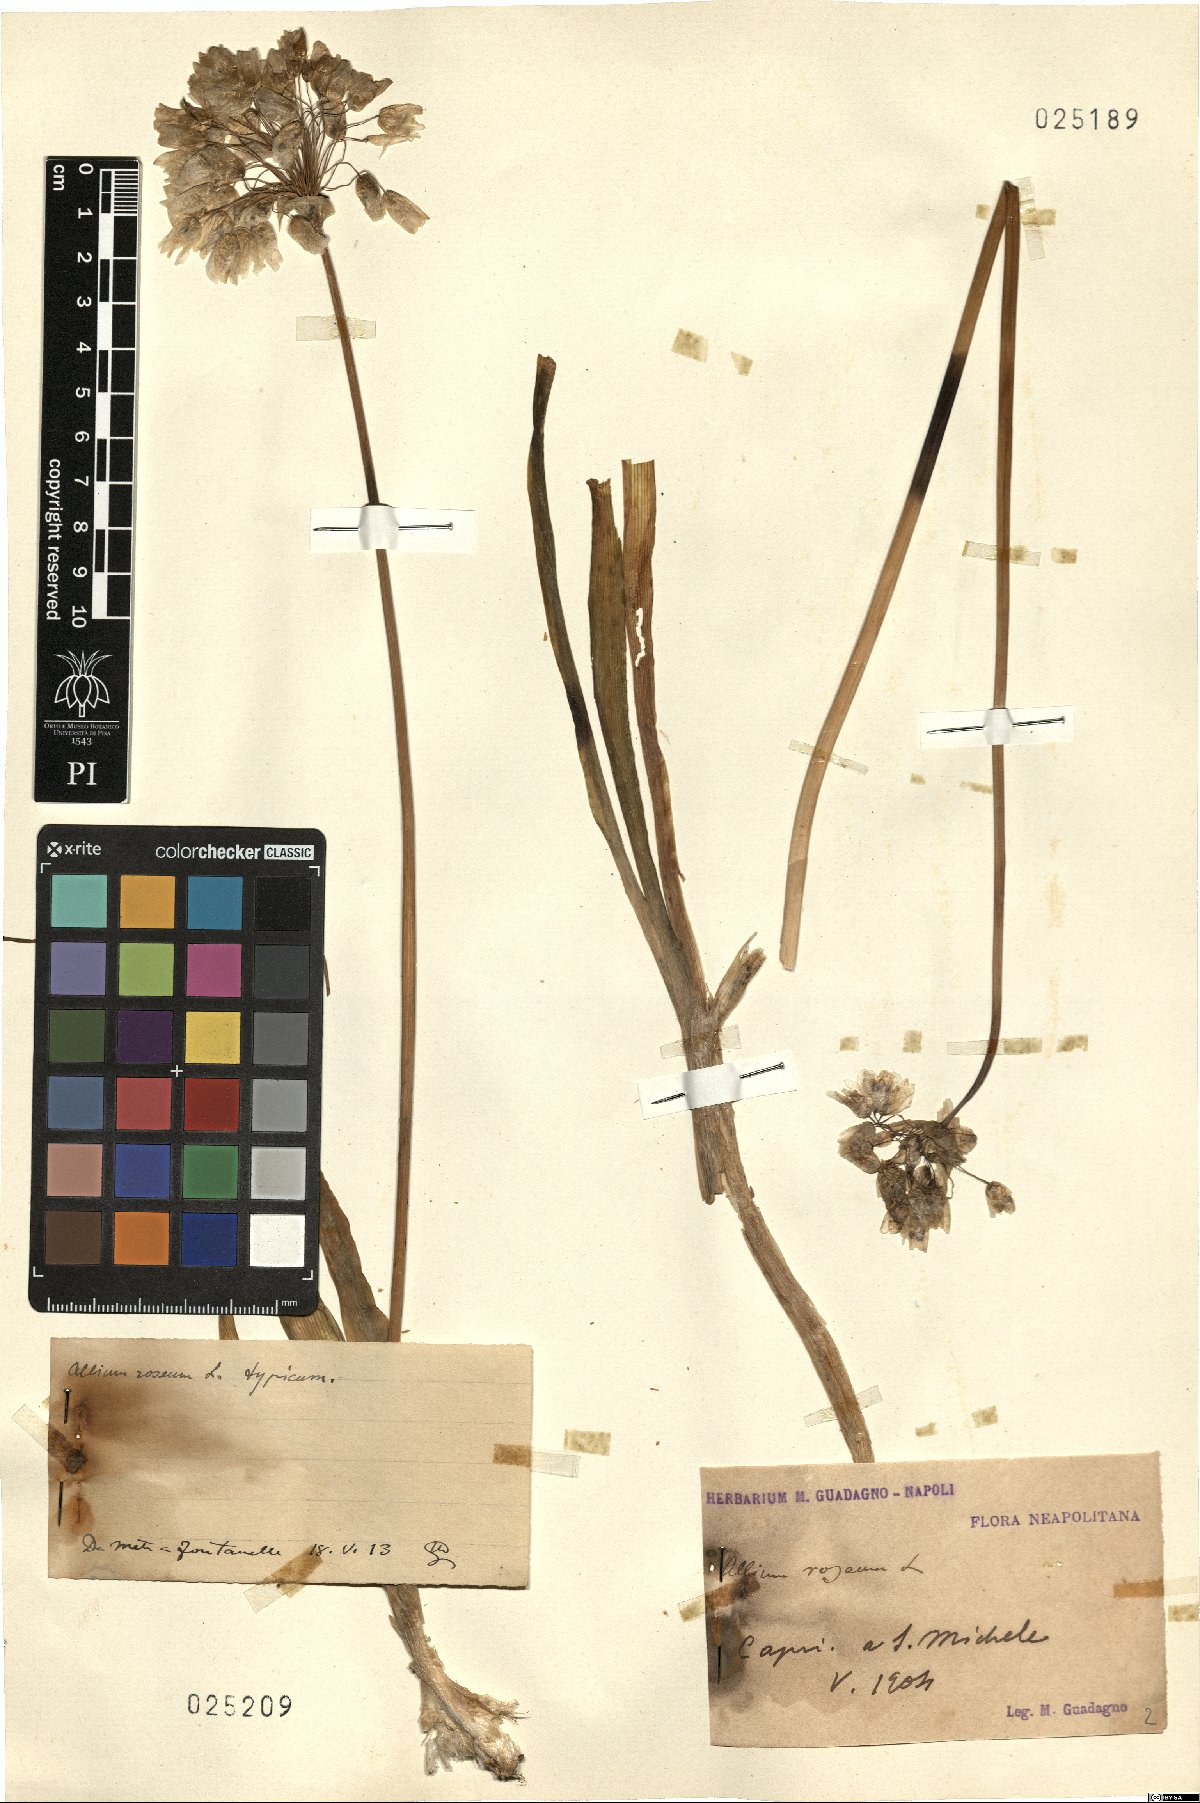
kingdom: Plantae
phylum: Tracheophyta
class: Liliopsida
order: Asparagales
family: Amaryllidaceae
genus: Allium
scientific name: Allium roseum
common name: Rosy garlic
